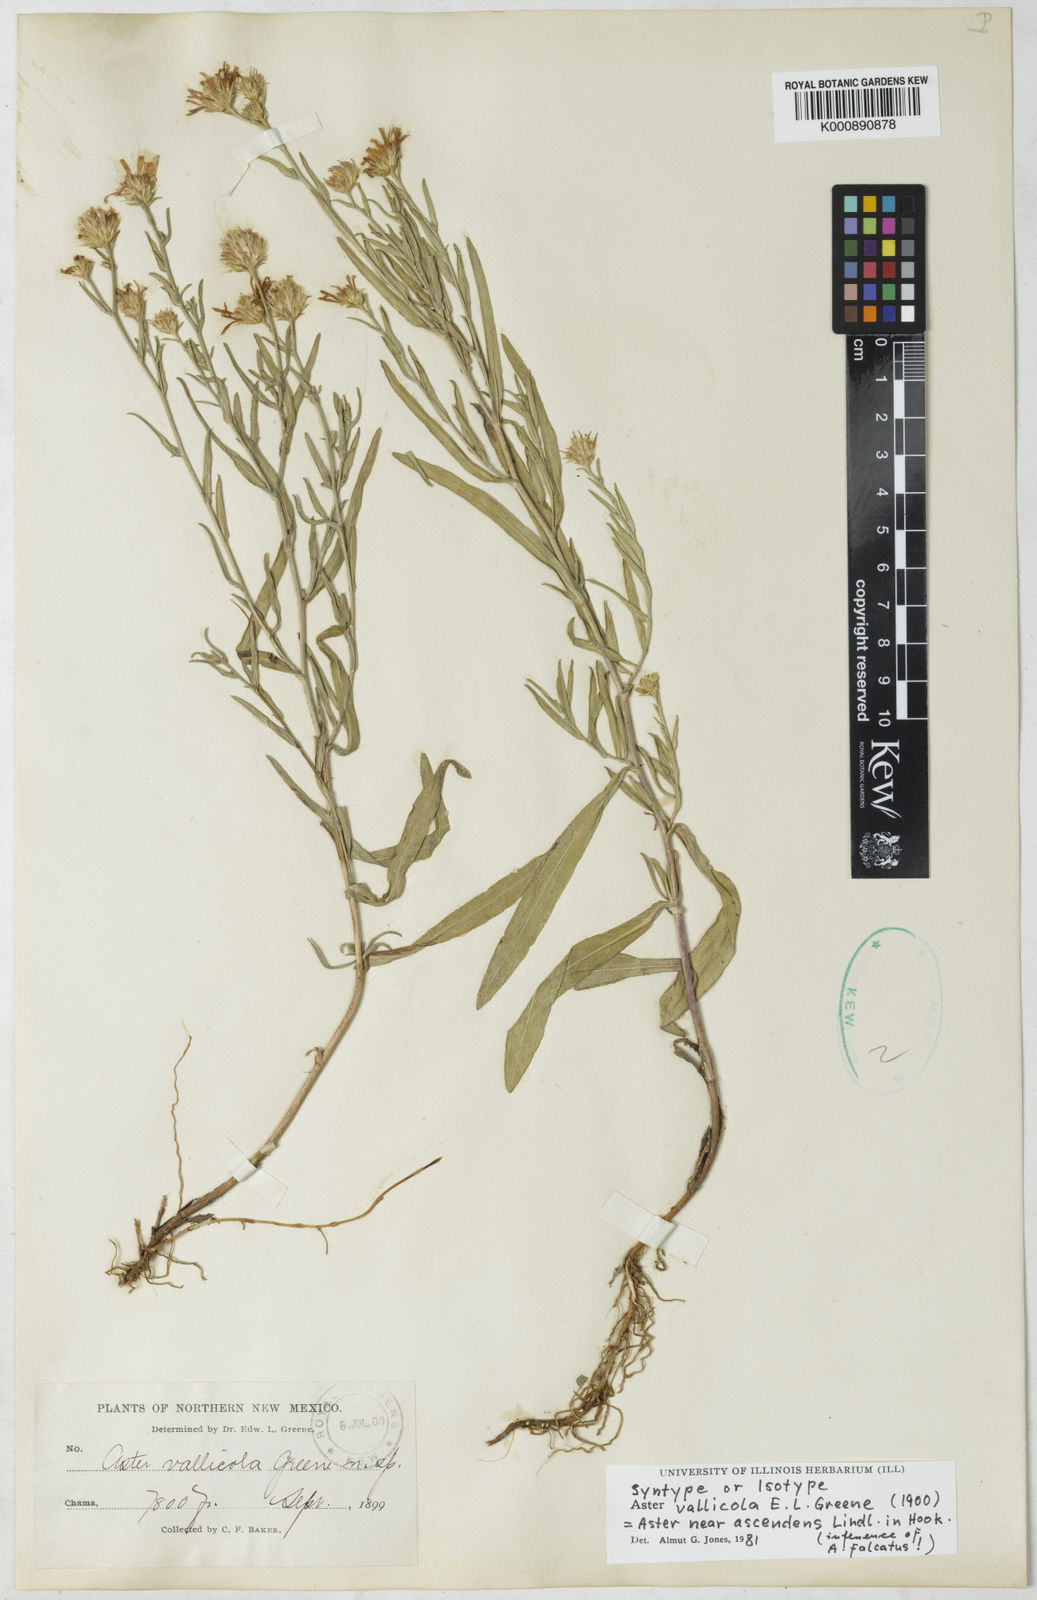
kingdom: Plantae
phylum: Tracheophyta
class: Magnoliopsida
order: Asterales
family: Asteraceae
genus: Symphyotrichum
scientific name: Symphyotrichum spathulatum
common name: Western mountain aster
